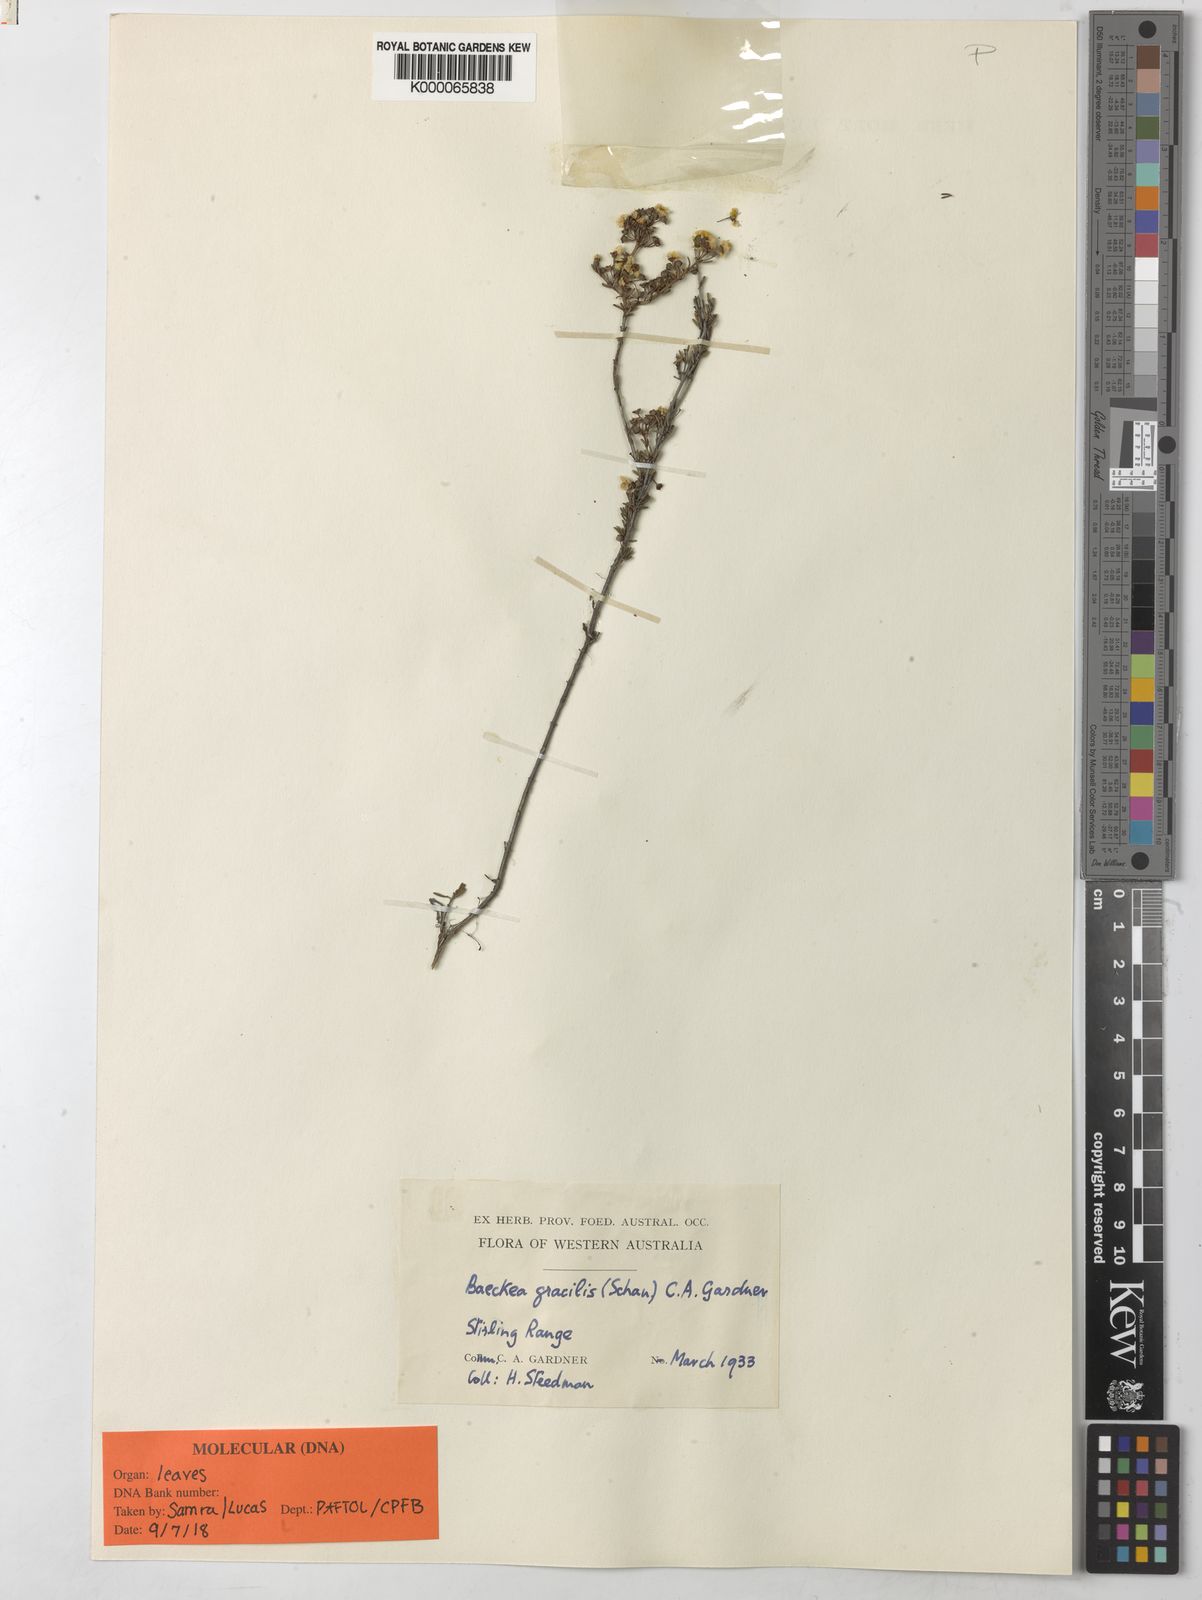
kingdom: Plantae
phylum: Tracheophyta
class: Magnoliopsida
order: Myrtales
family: Myrtaceae
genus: Oxymyrrhine
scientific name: Oxymyrrhine gracilis
